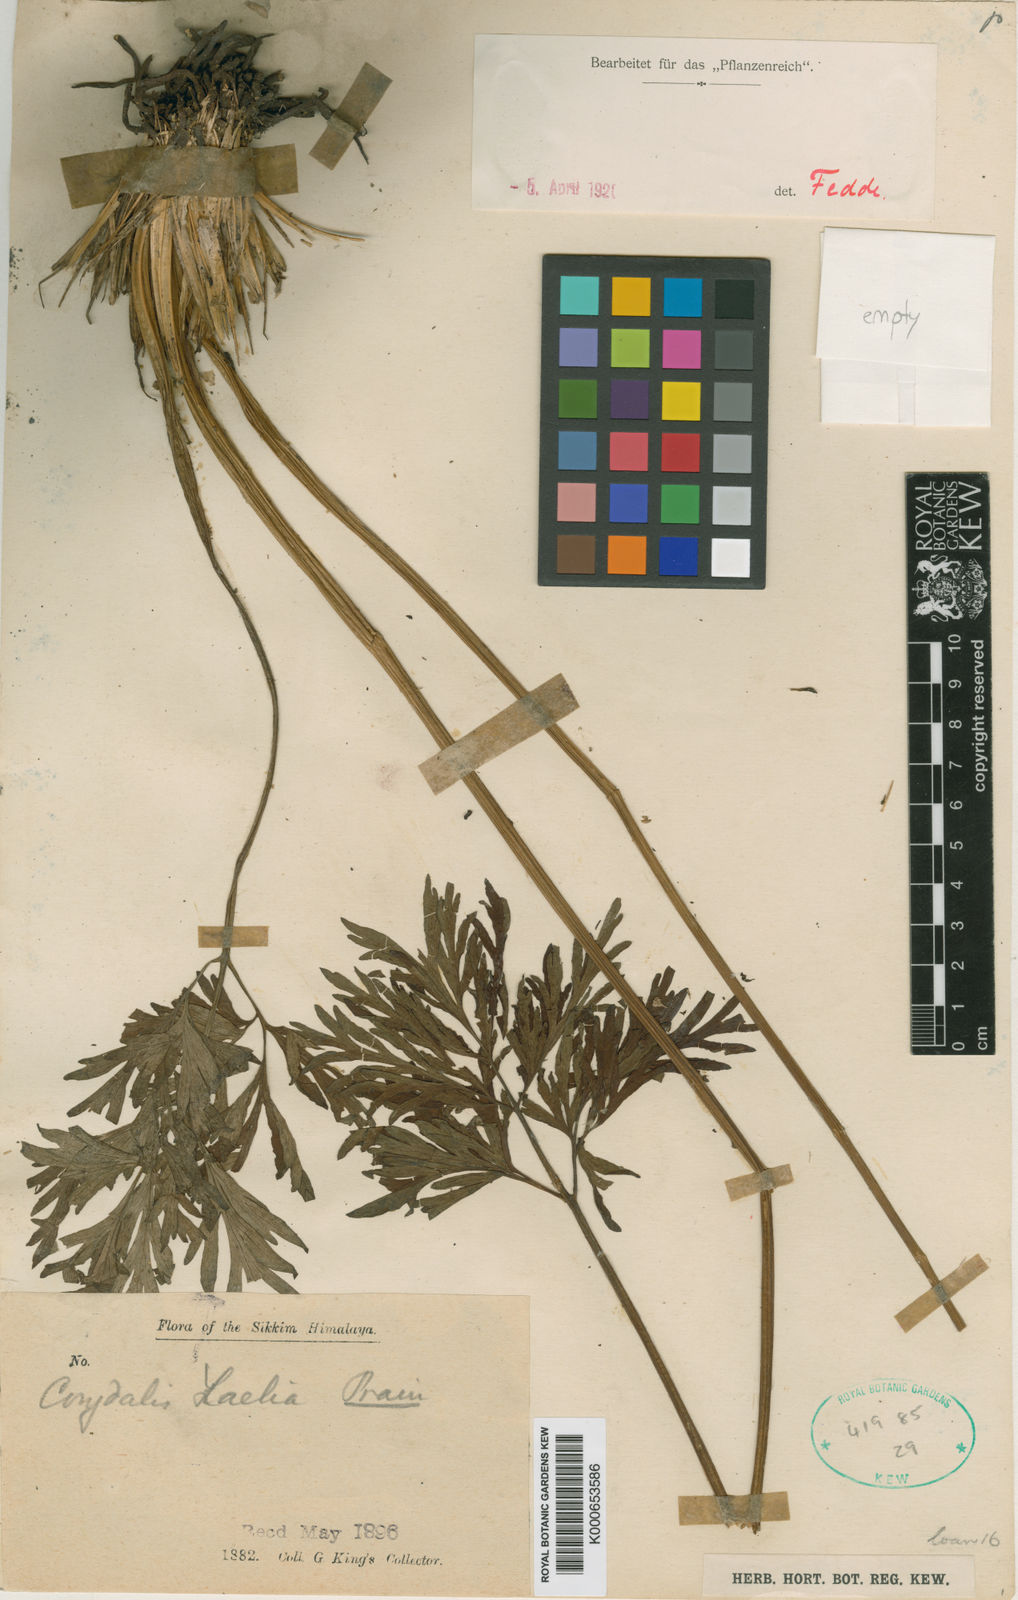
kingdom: Plantae
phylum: Tracheophyta
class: Magnoliopsida
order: Ranunculales
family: Papaveraceae
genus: Corydalis
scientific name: Corydalis laelia
